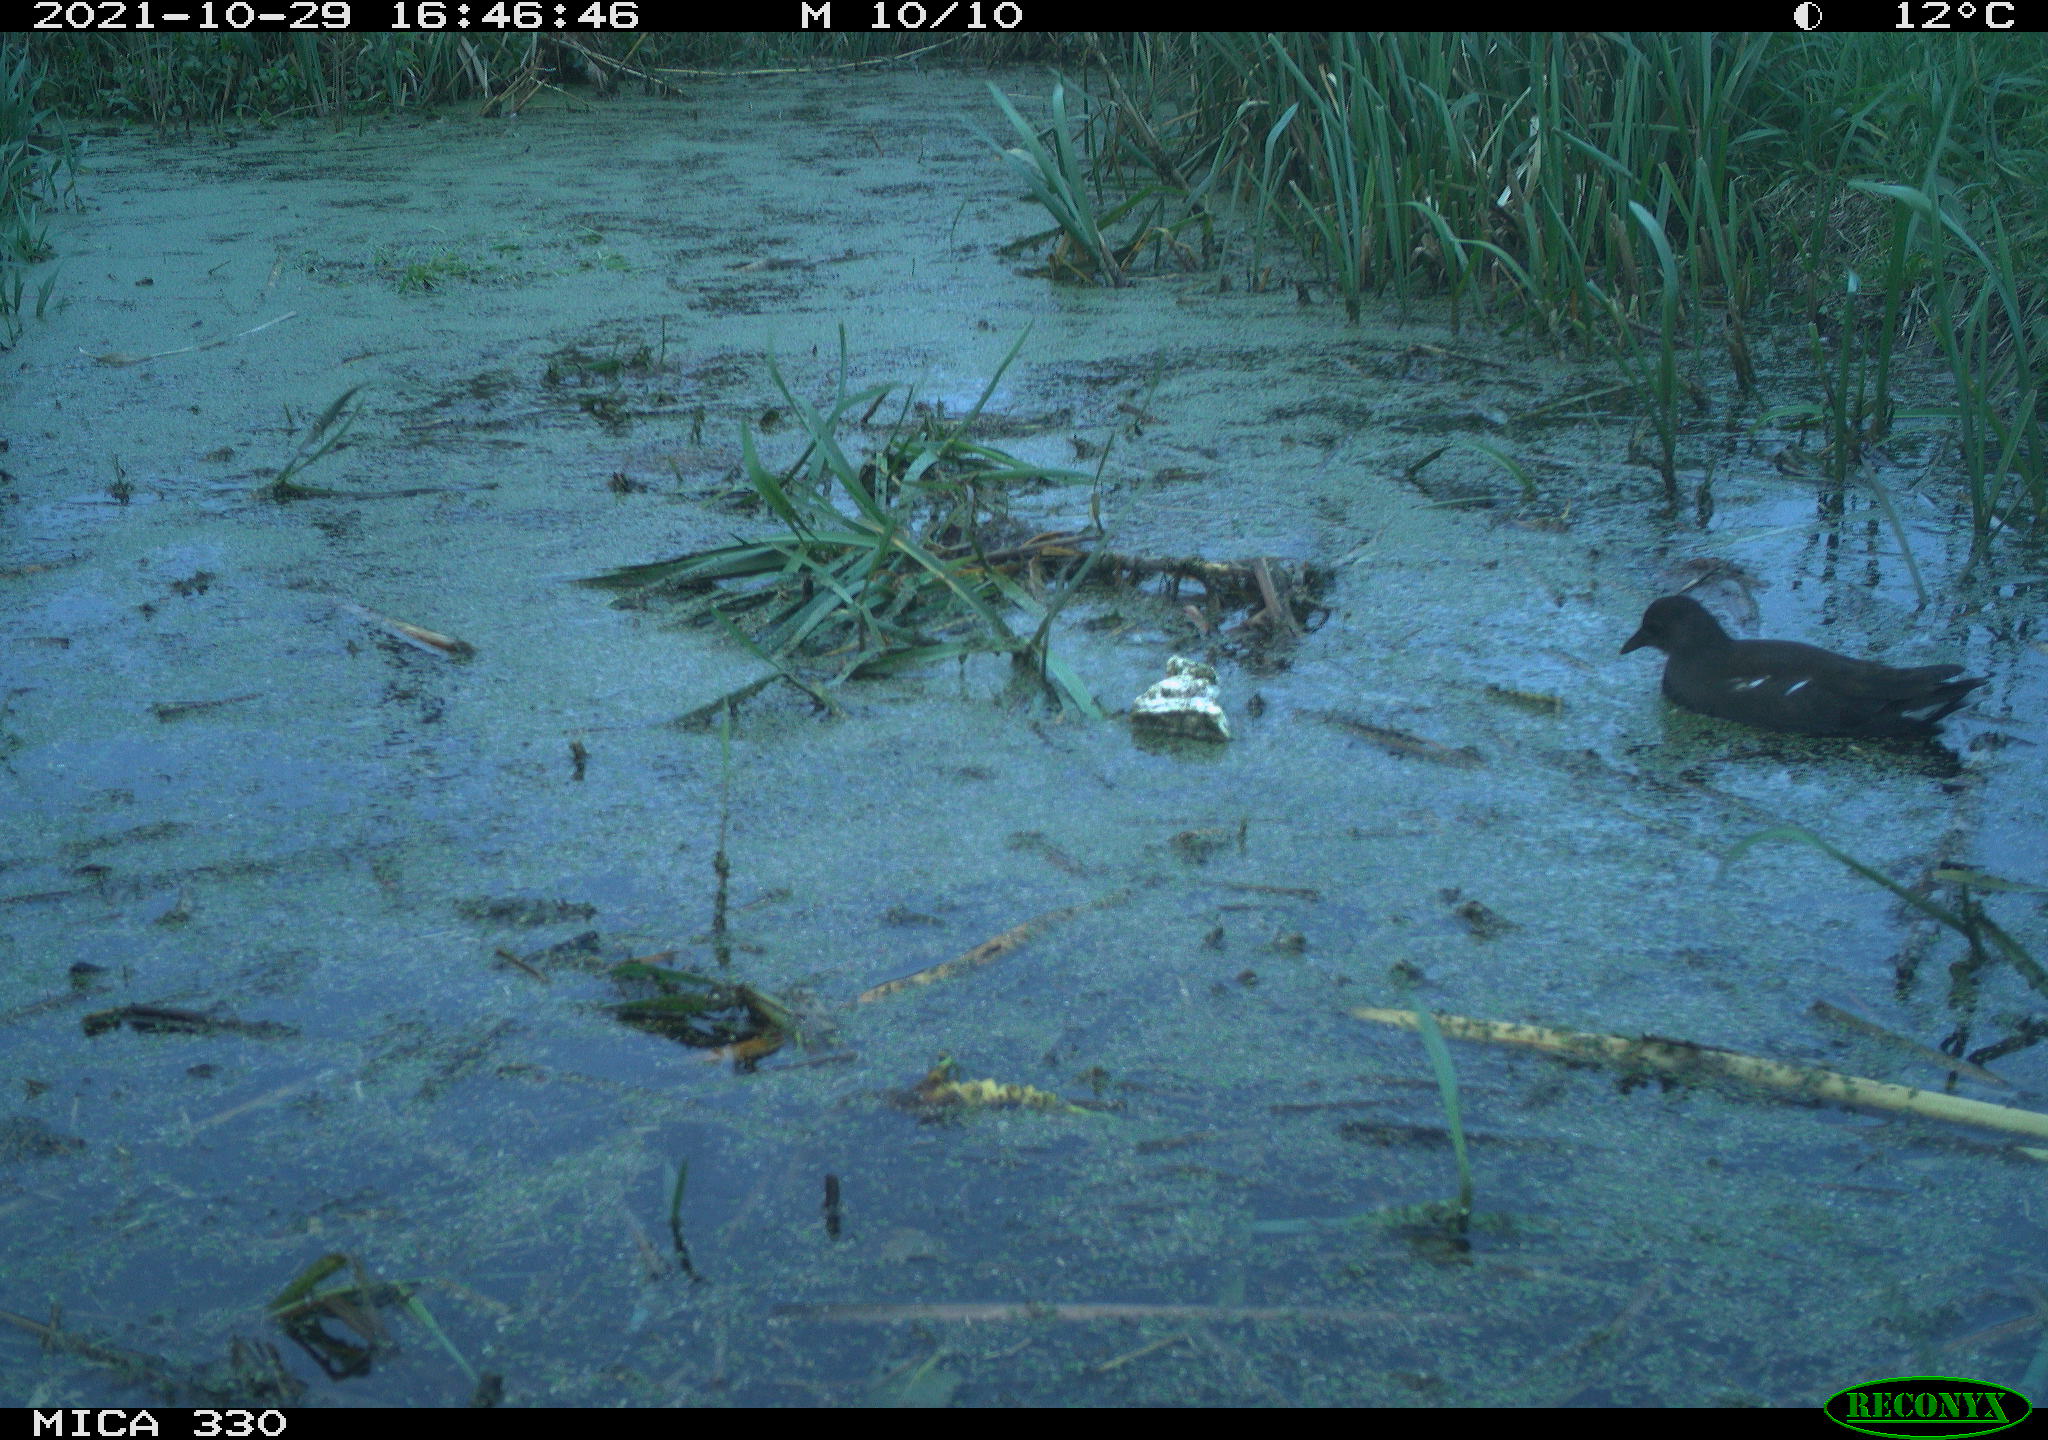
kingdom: Animalia
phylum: Chordata
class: Aves
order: Gruiformes
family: Rallidae
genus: Gallinula
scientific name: Gallinula chloropus
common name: Common moorhen
